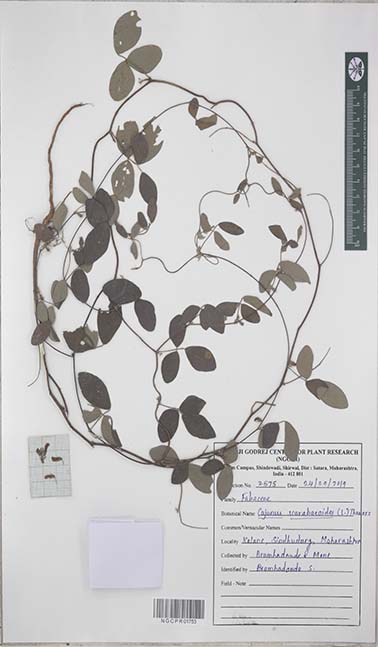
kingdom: Plantae
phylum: Tracheophyta
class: Magnoliopsida
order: Fabales
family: Fabaceae
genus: Cajanus
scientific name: Cajanus scarabaeoides
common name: Showy pigeonpea
